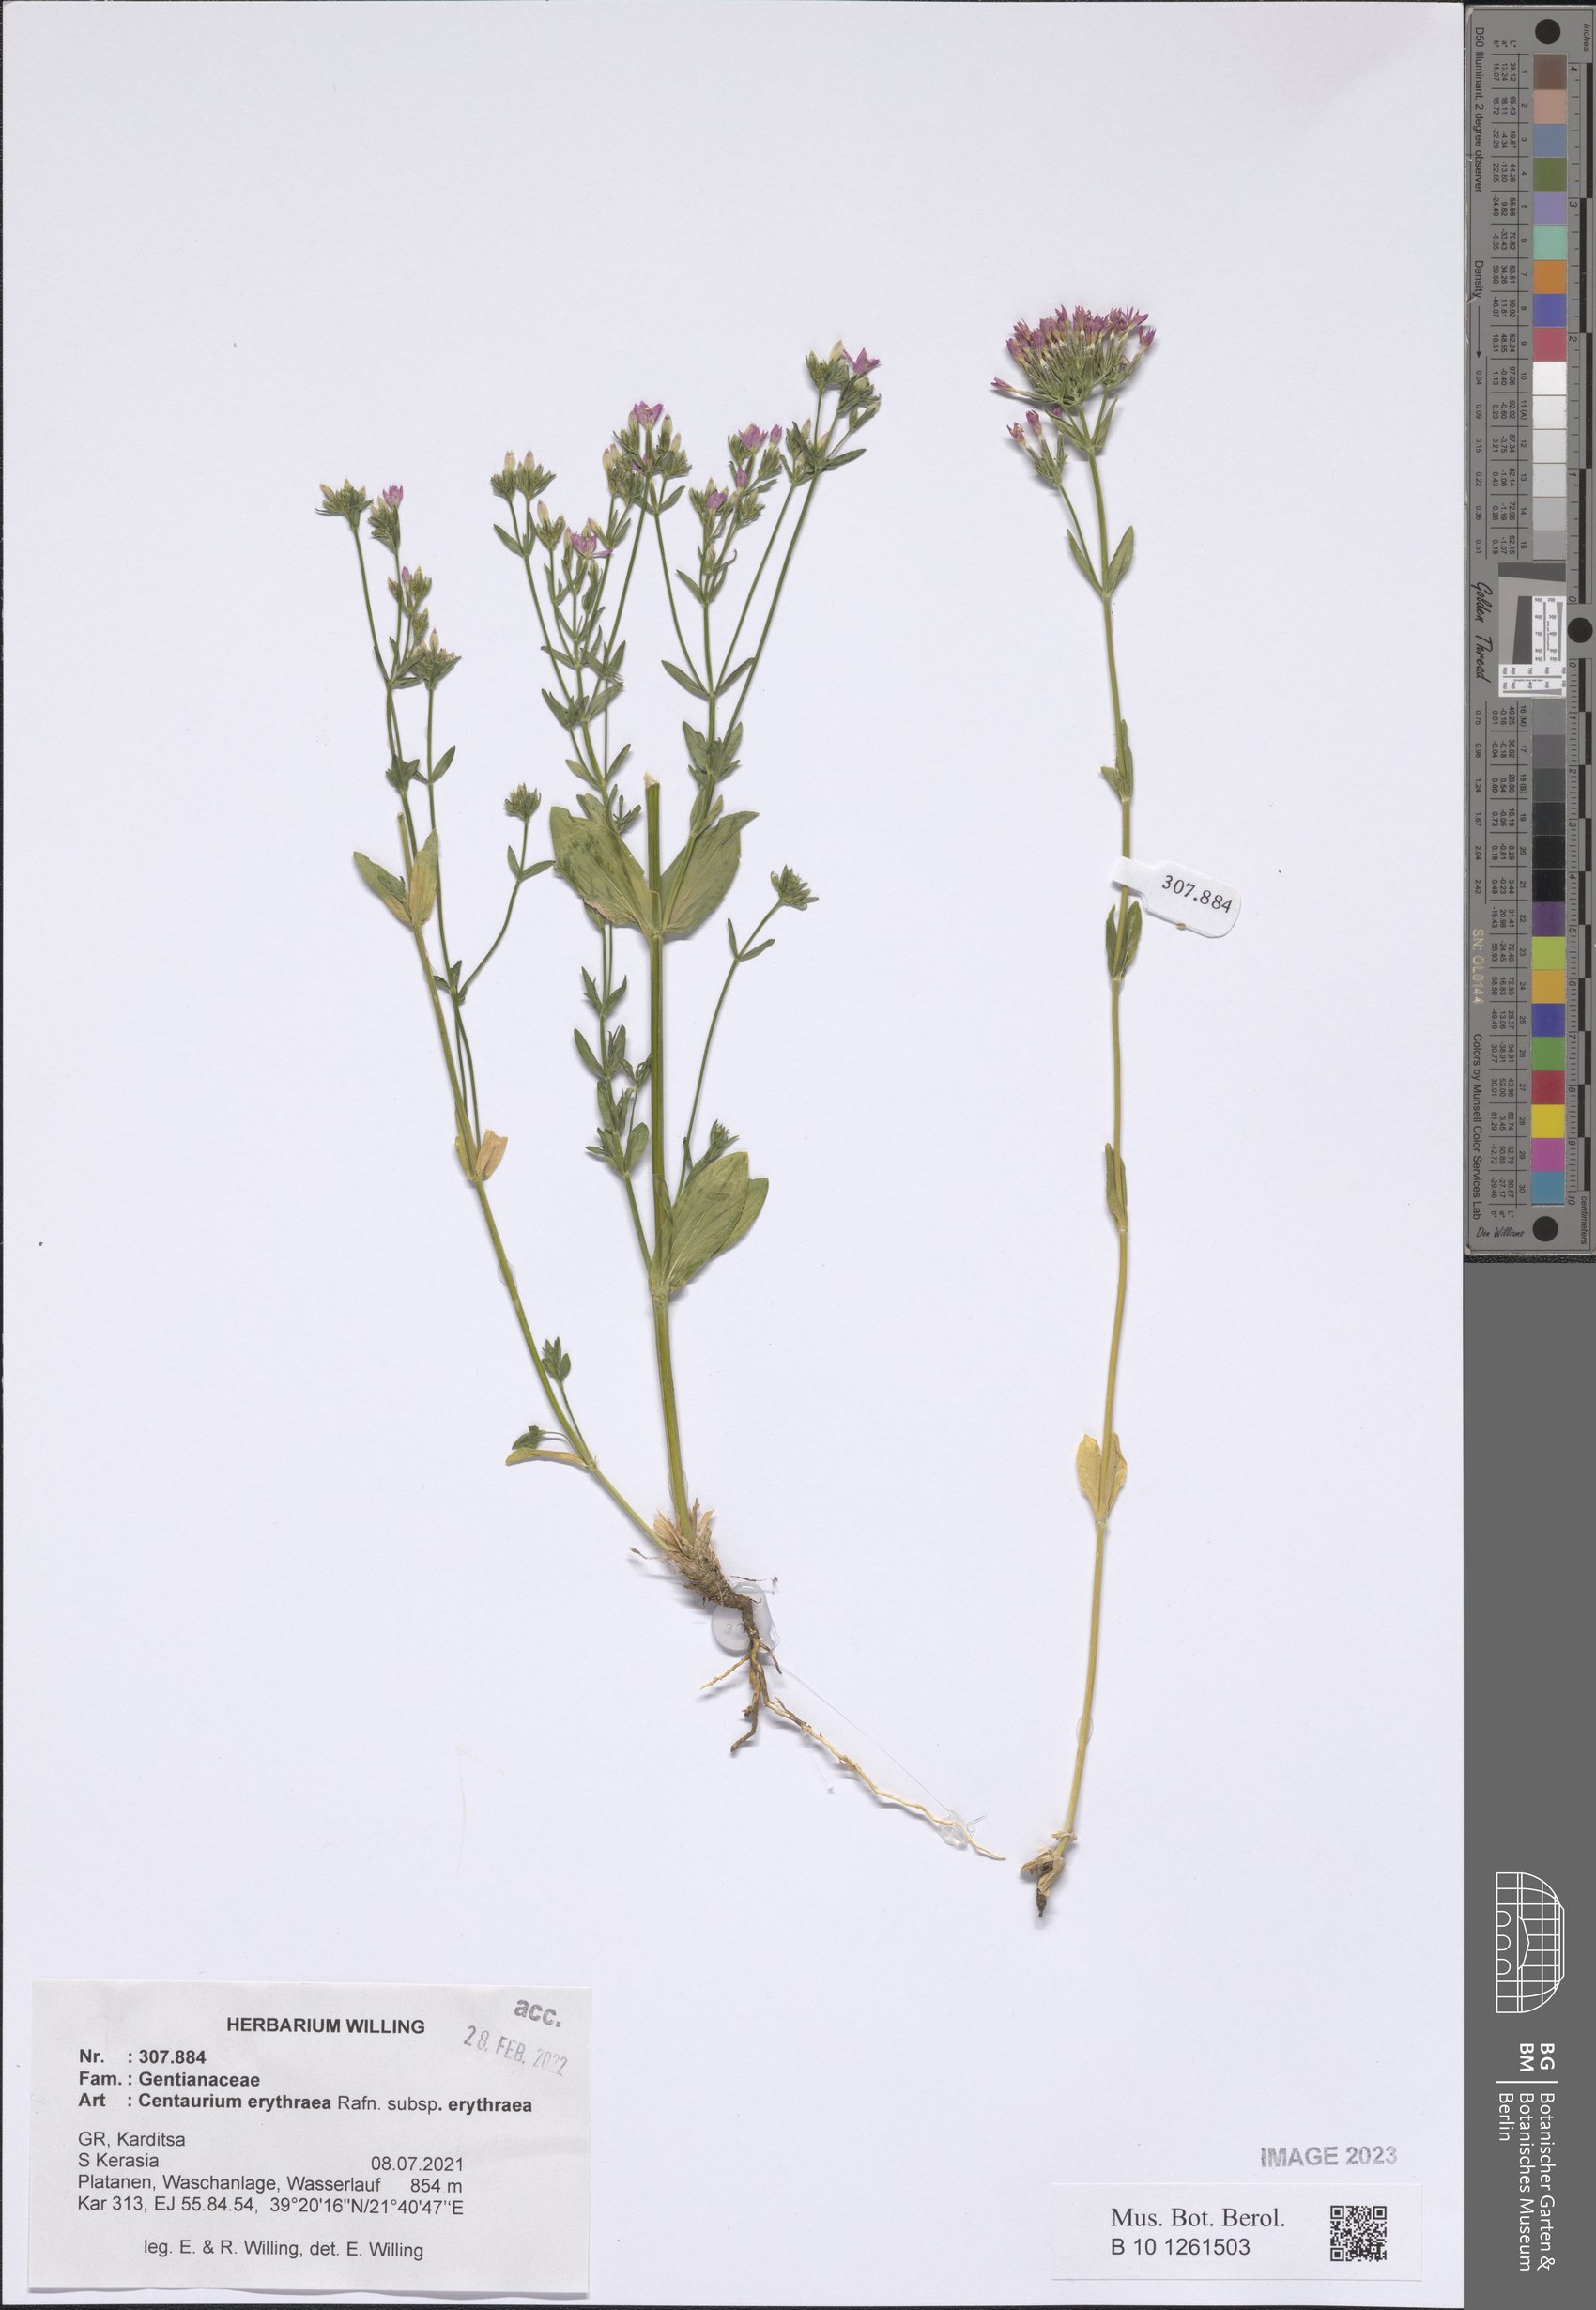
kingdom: Plantae
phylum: Tracheophyta
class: Magnoliopsida
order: Gentianales
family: Gentianaceae
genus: Centaurium
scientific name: Centaurium erythraea
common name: Common centaury
